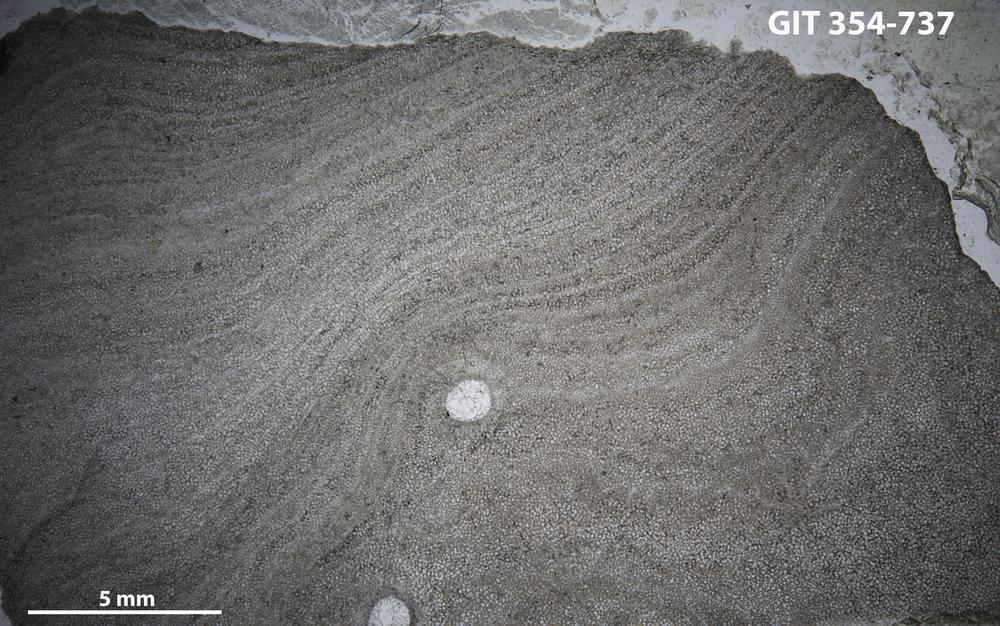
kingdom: Animalia
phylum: Porifera
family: Densastromatidae
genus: Densastroma
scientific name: Densastroma
